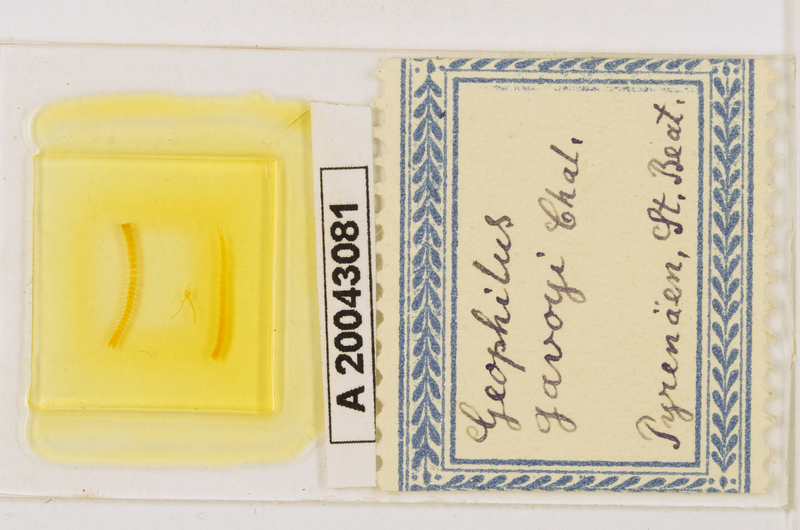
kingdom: Animalia
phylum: Arthropoda
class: Chilopoda
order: Geophilomorpha
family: Geophilidae
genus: Geophilus
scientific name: Geophilus gavoyi
